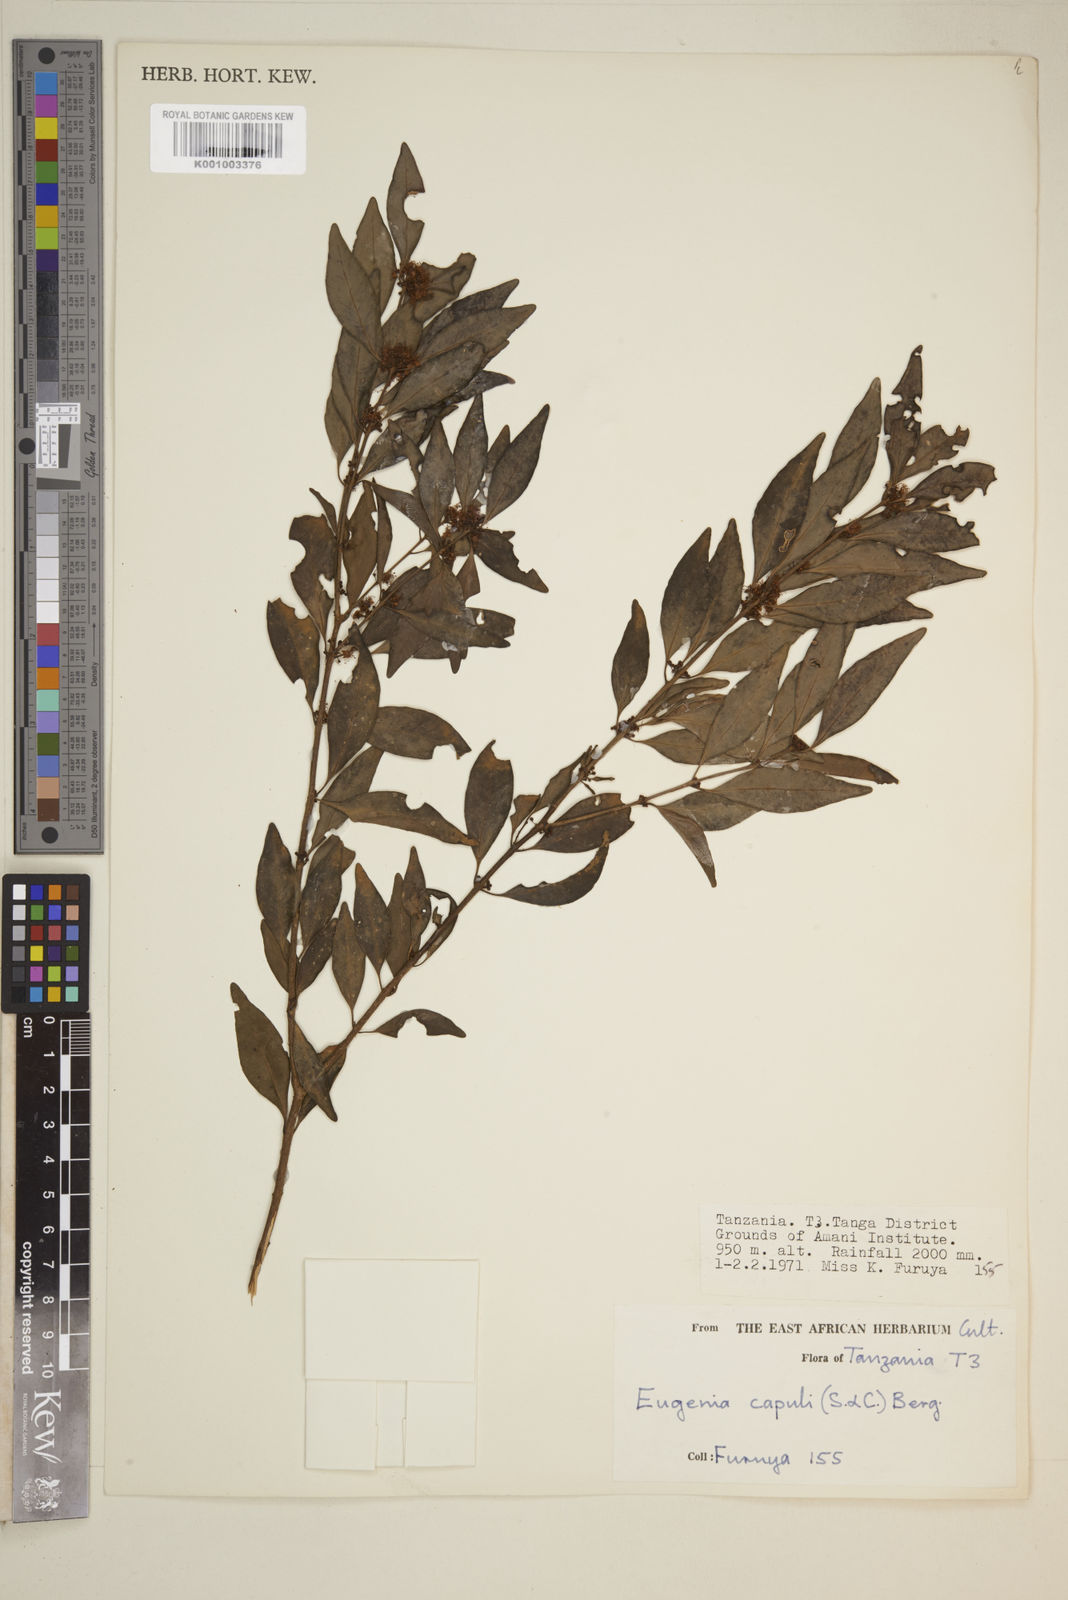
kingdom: Plantae
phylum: Tracheophyta
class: Magnoliopsida
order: Myrtales
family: Myrtaceae
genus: Eugenia
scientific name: Eugenia capuli
